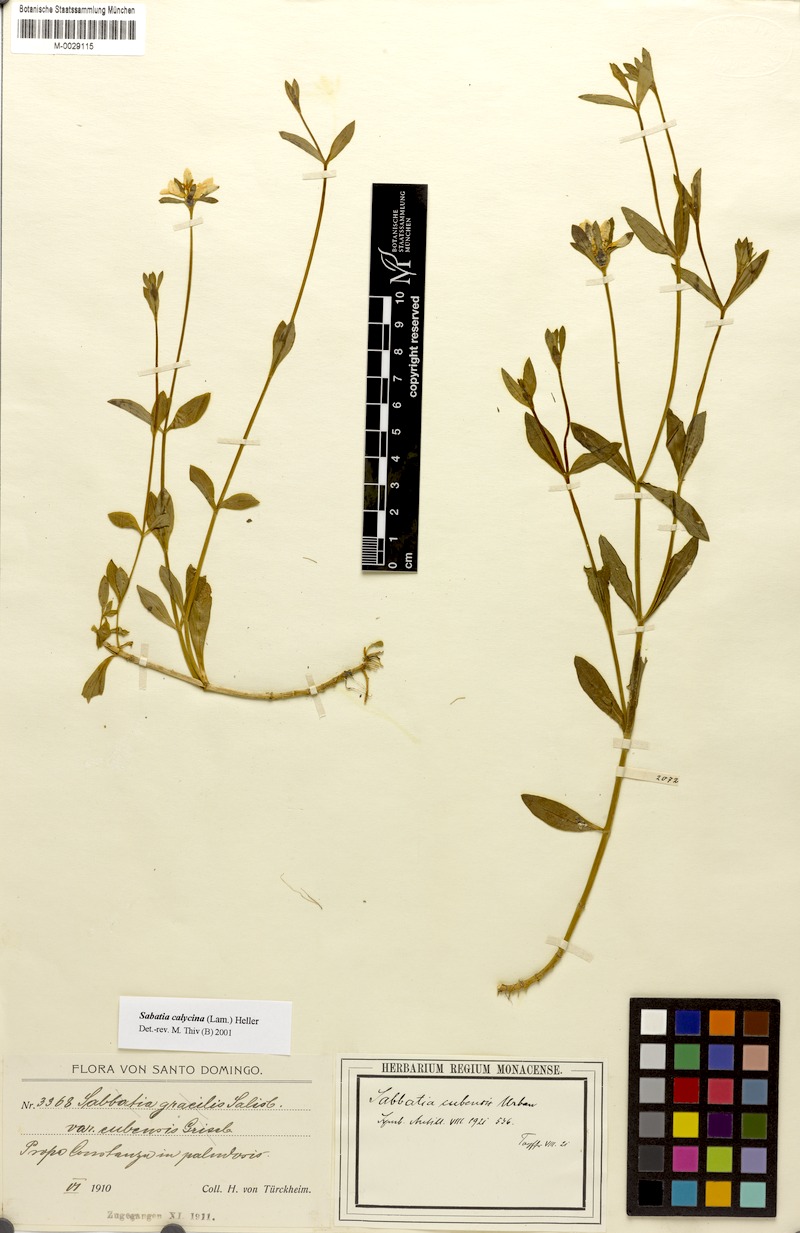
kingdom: Plantae
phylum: Tracheophyta
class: Magnoliopsida
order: Gentianales
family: Gentianaceae
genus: Sabatia
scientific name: Sabatia calycina
